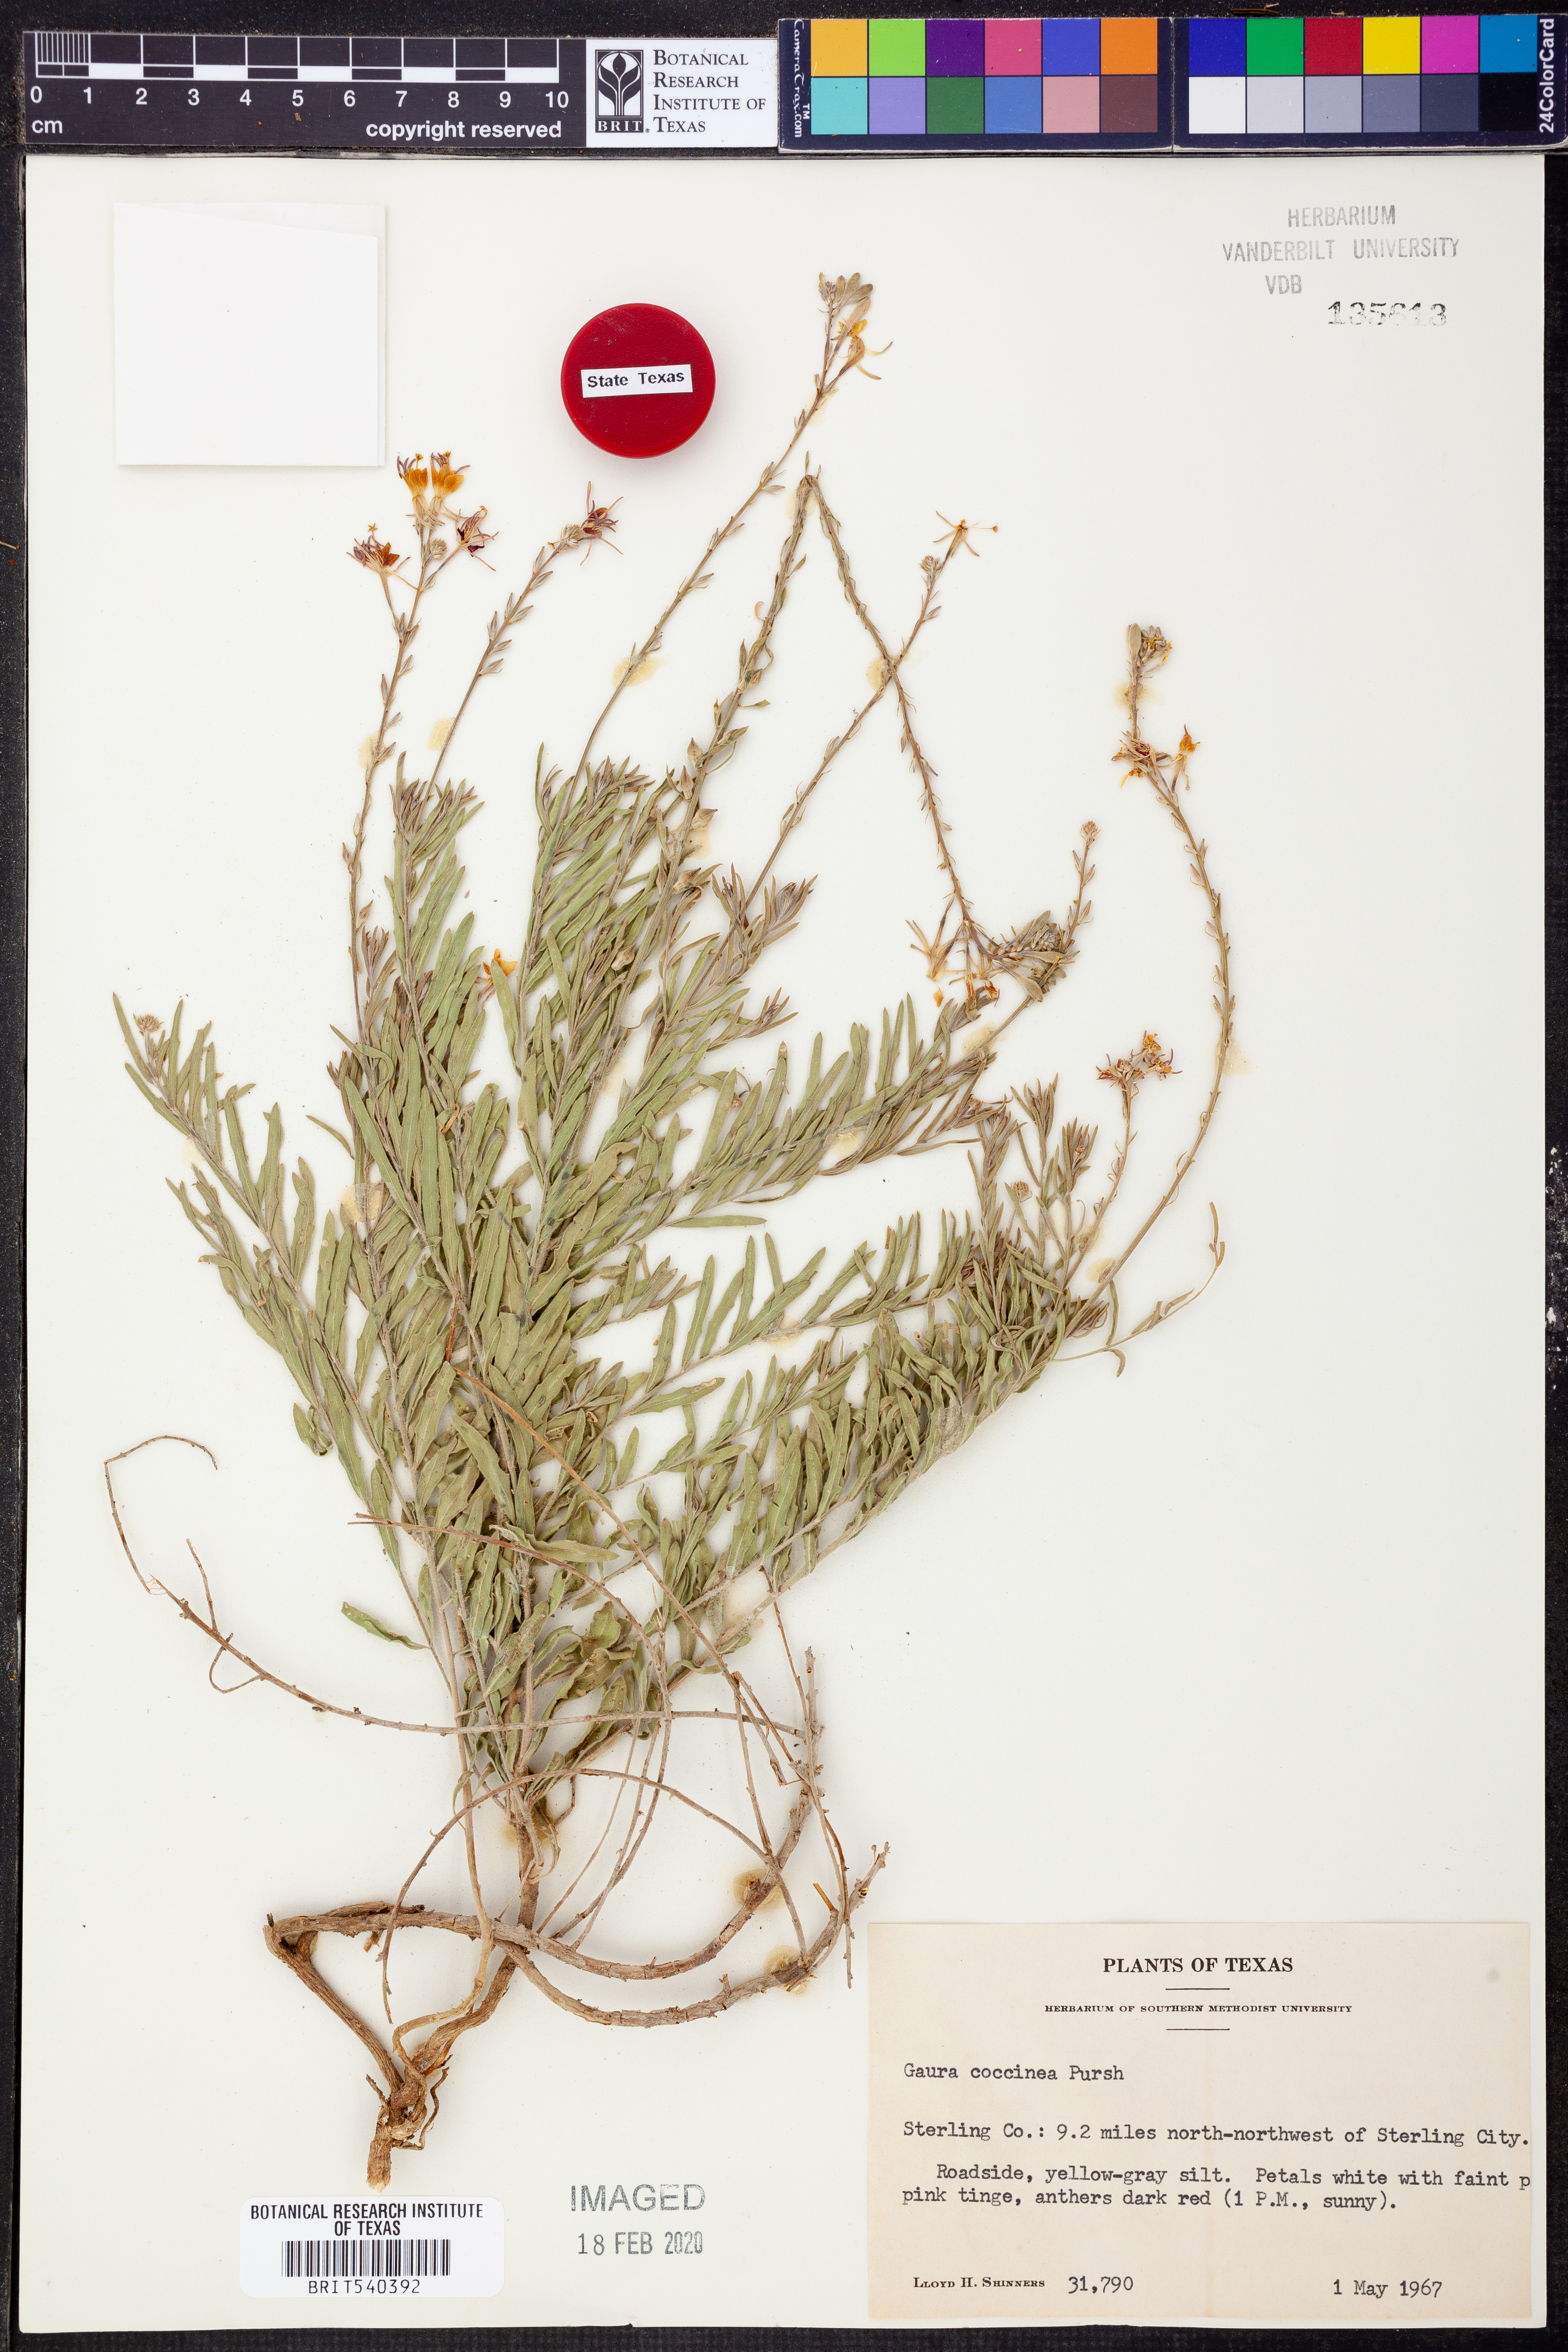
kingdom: Plantae
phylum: Tracheophyta
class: Magnoliopsida
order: Myrtales
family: Onagraceae
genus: Oenothera
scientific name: Oenothera suffrutescens
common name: Scarlet beeblossom
